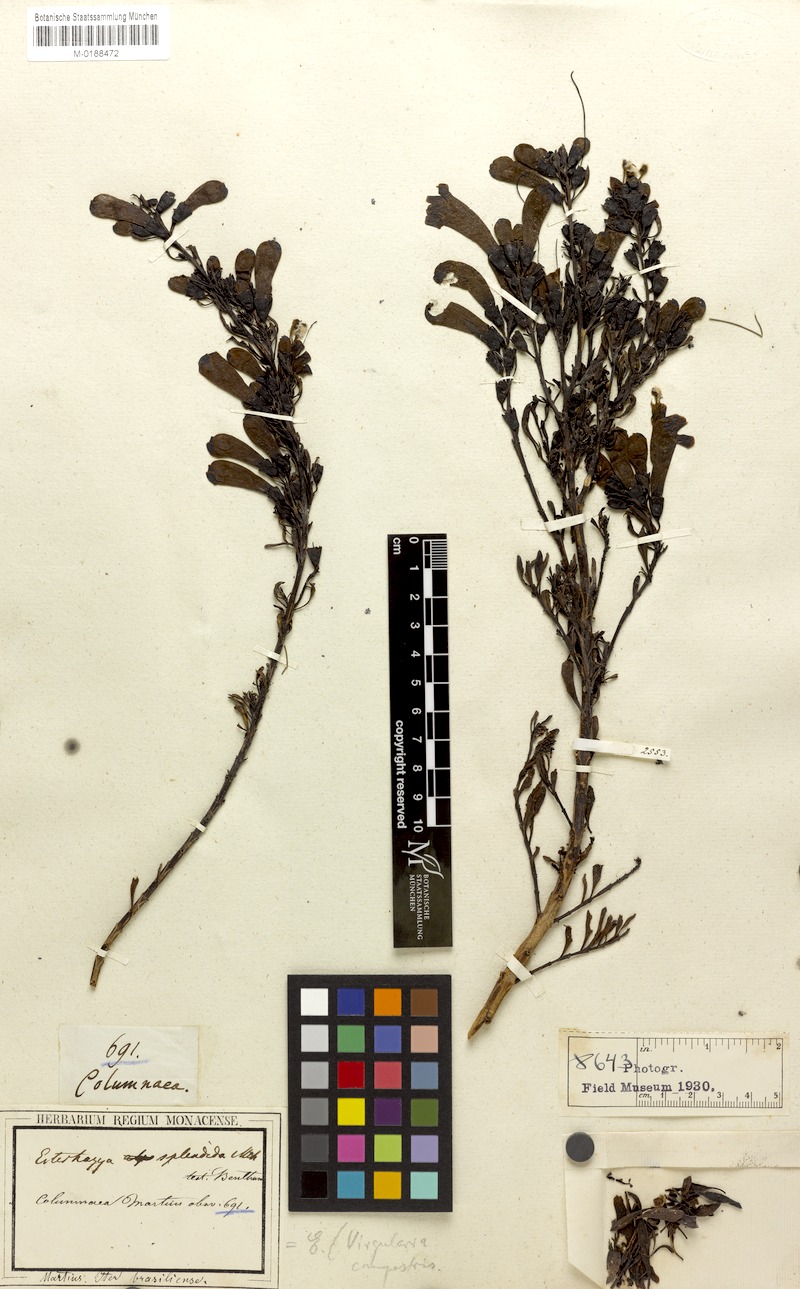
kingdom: Plantae
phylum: Tracheophyta
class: Magnoliopsida
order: Lamiales
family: Orobanchaceae
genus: Esterhazya
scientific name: Esterhazya splendida
